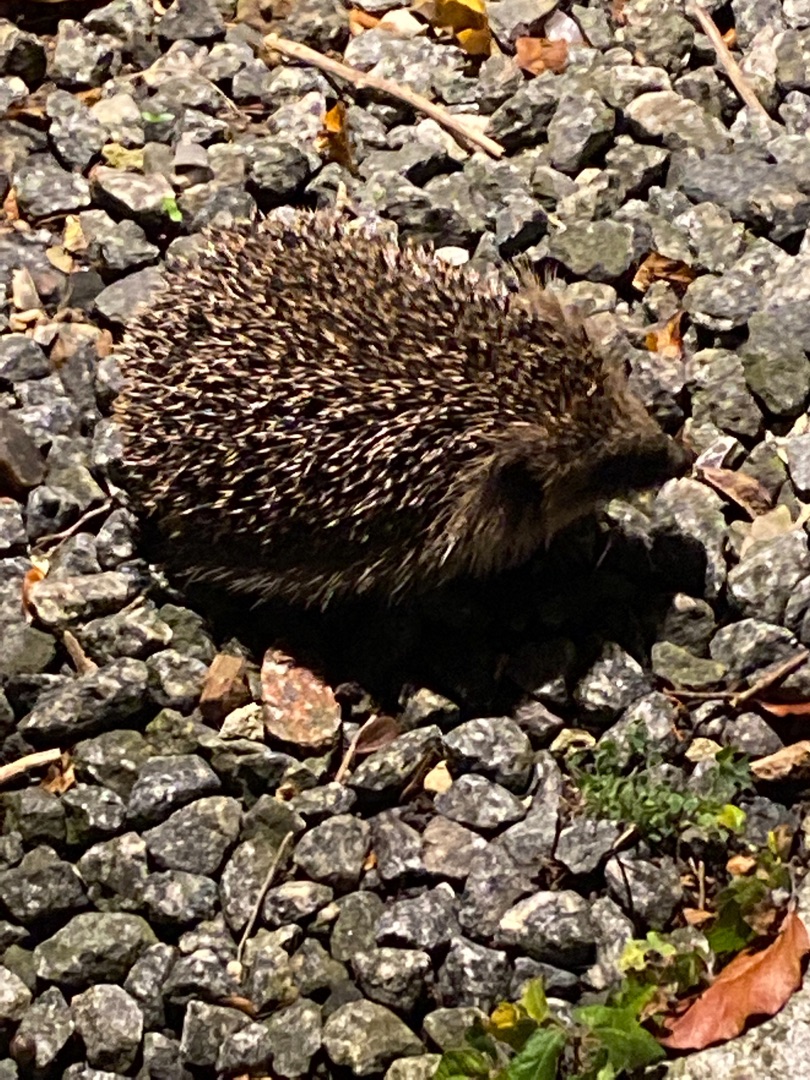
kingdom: Animalia
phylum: Chordata
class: Mammalia
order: Erinaceomorpha
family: Erinaceidae
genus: Erinaceus
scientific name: Erinaceus europaeus
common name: Pindsvin
